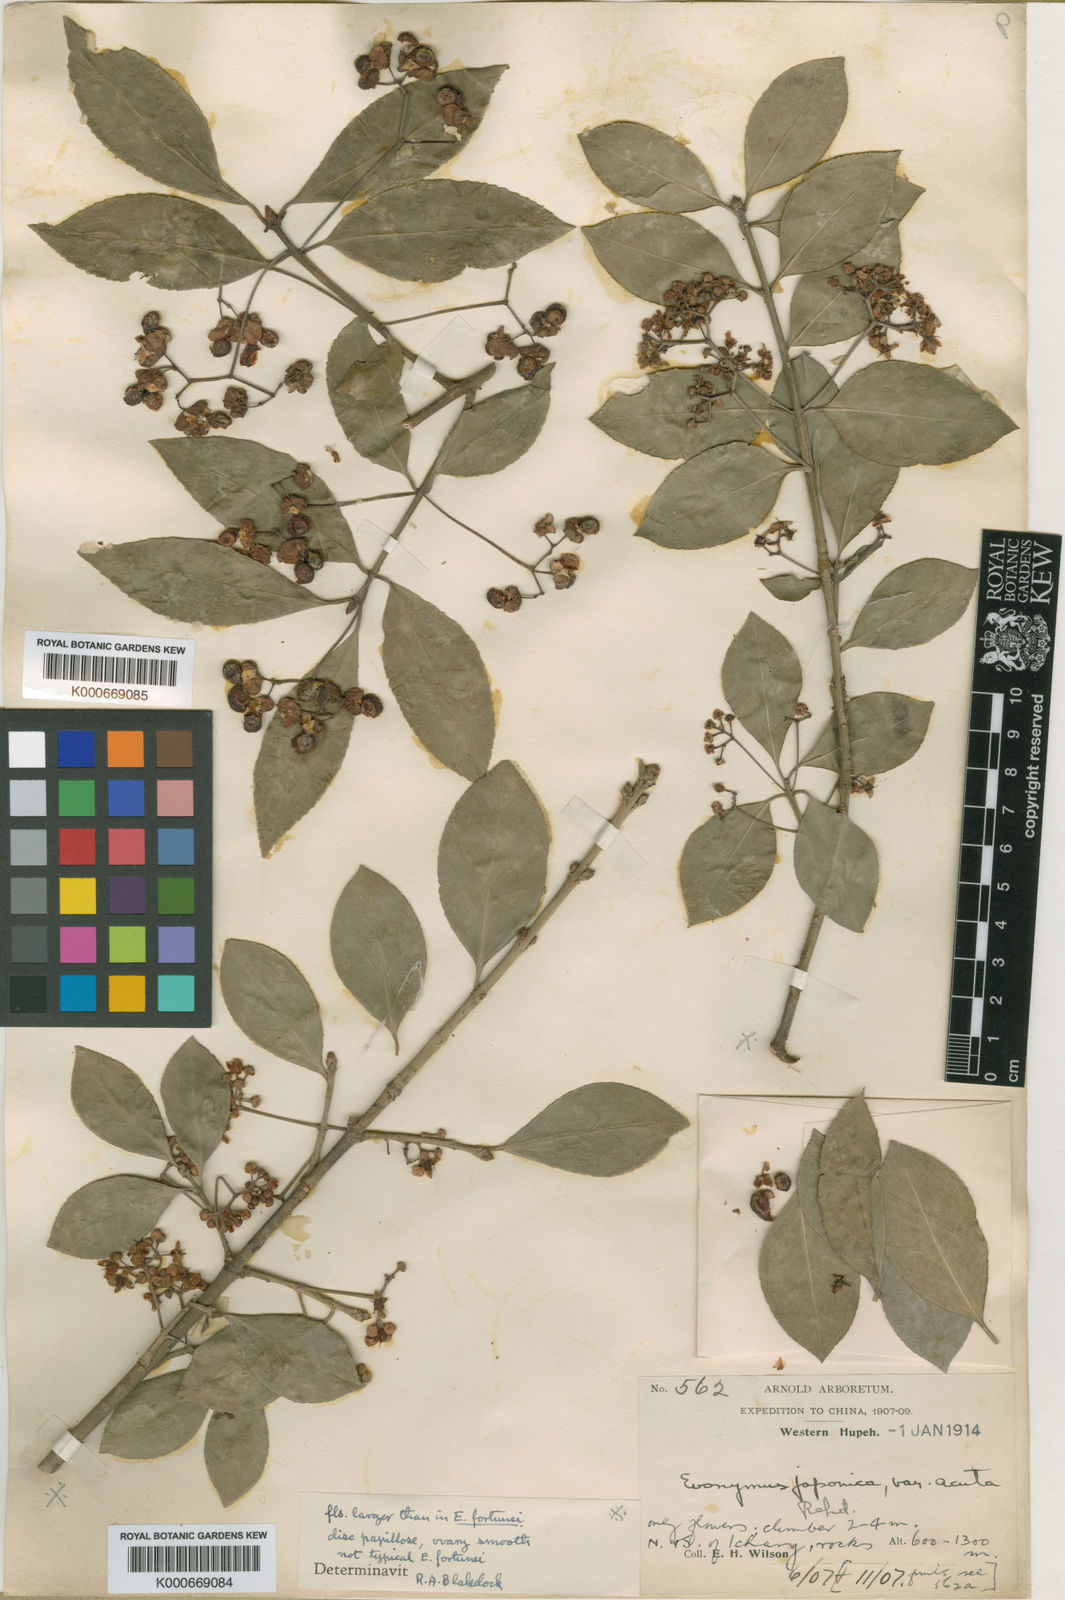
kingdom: Plantae
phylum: Tracheophyta
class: Magnoliopsida
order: Celastrales
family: Celastraceae
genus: Euonymus
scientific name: Euonymus fortunei
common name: Climbing euonymus
